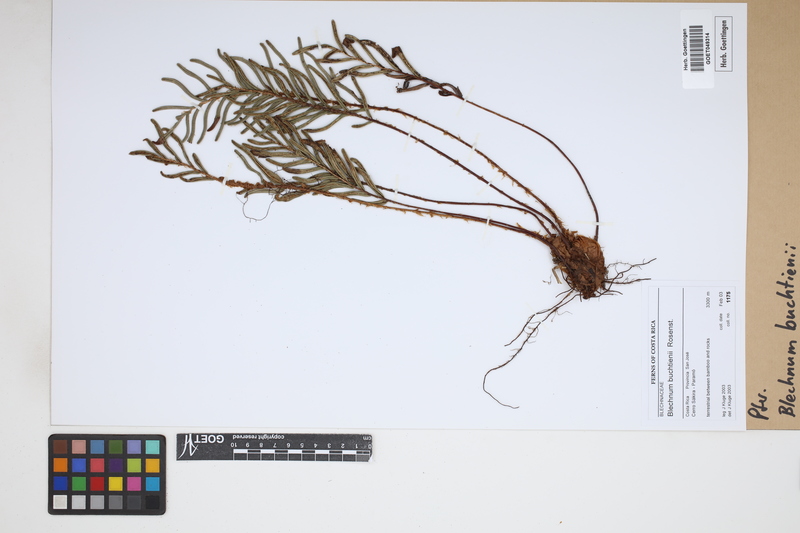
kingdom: Plantae
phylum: Tracheophyta
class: Polypodiopsida
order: Polypodiales
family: Blechnaceae
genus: Lomariocycas
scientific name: Lomariocycas aurata
